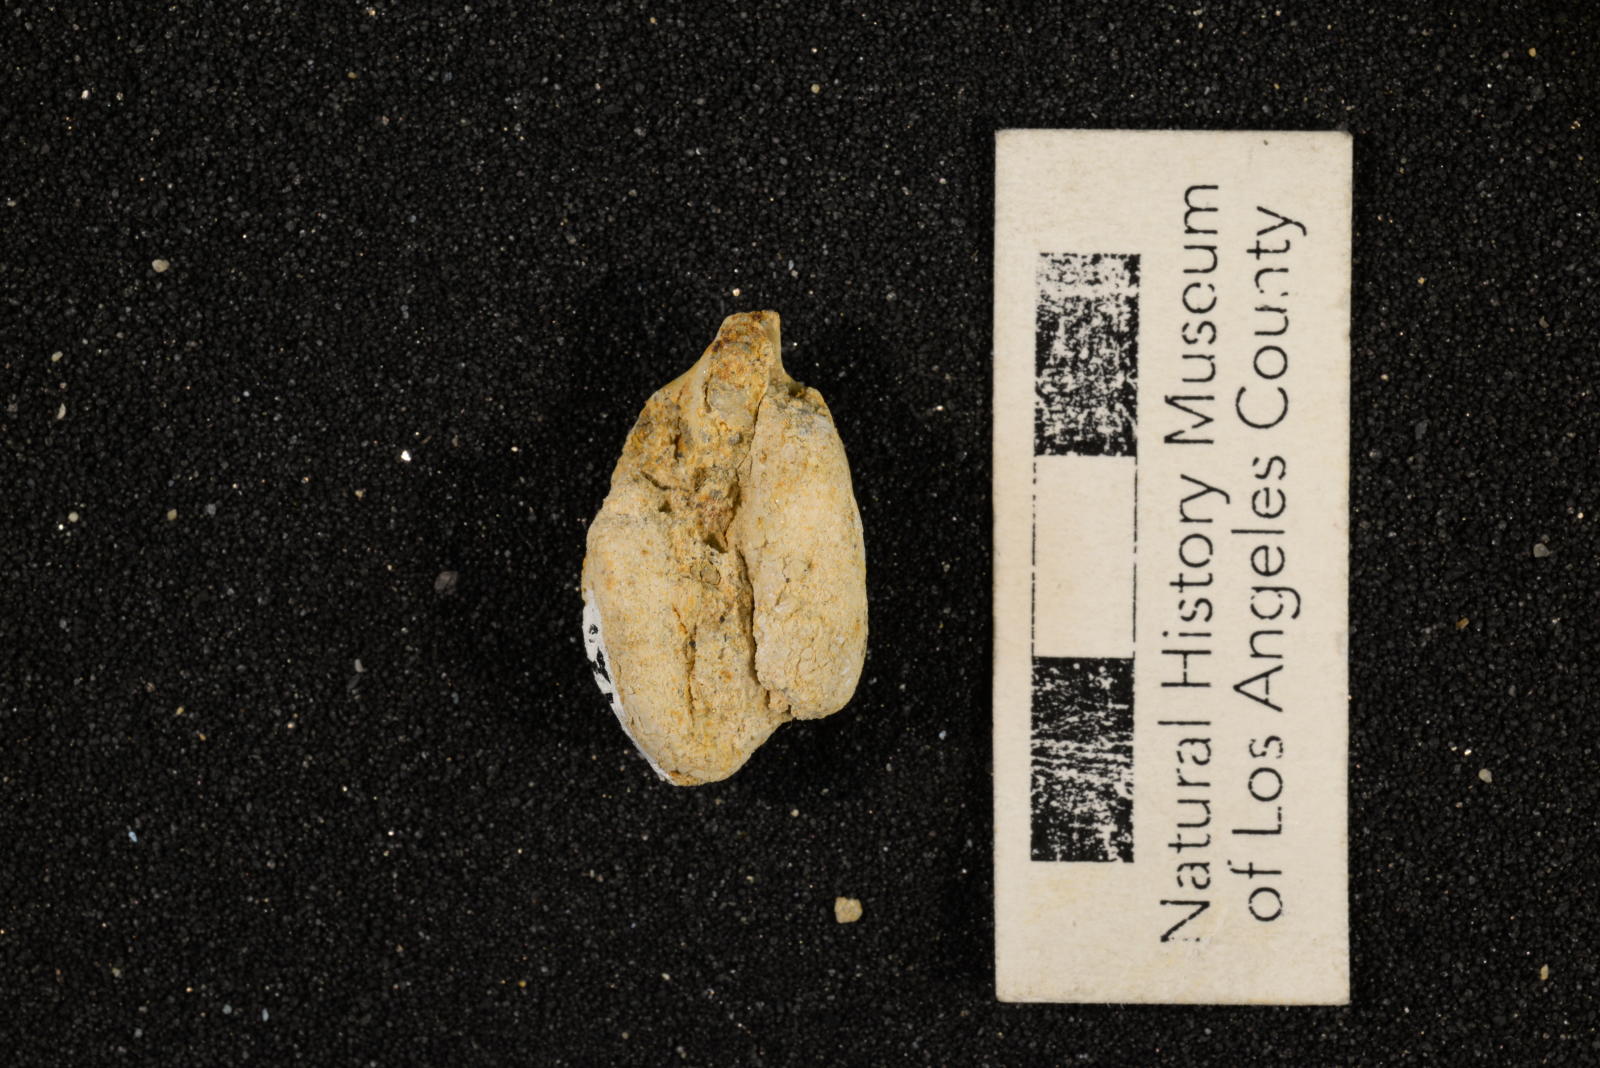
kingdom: Animalia
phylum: Mollusca
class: Gastropoda
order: Littorinimorpha
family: Cypraeidae
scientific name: Cypraeidae
